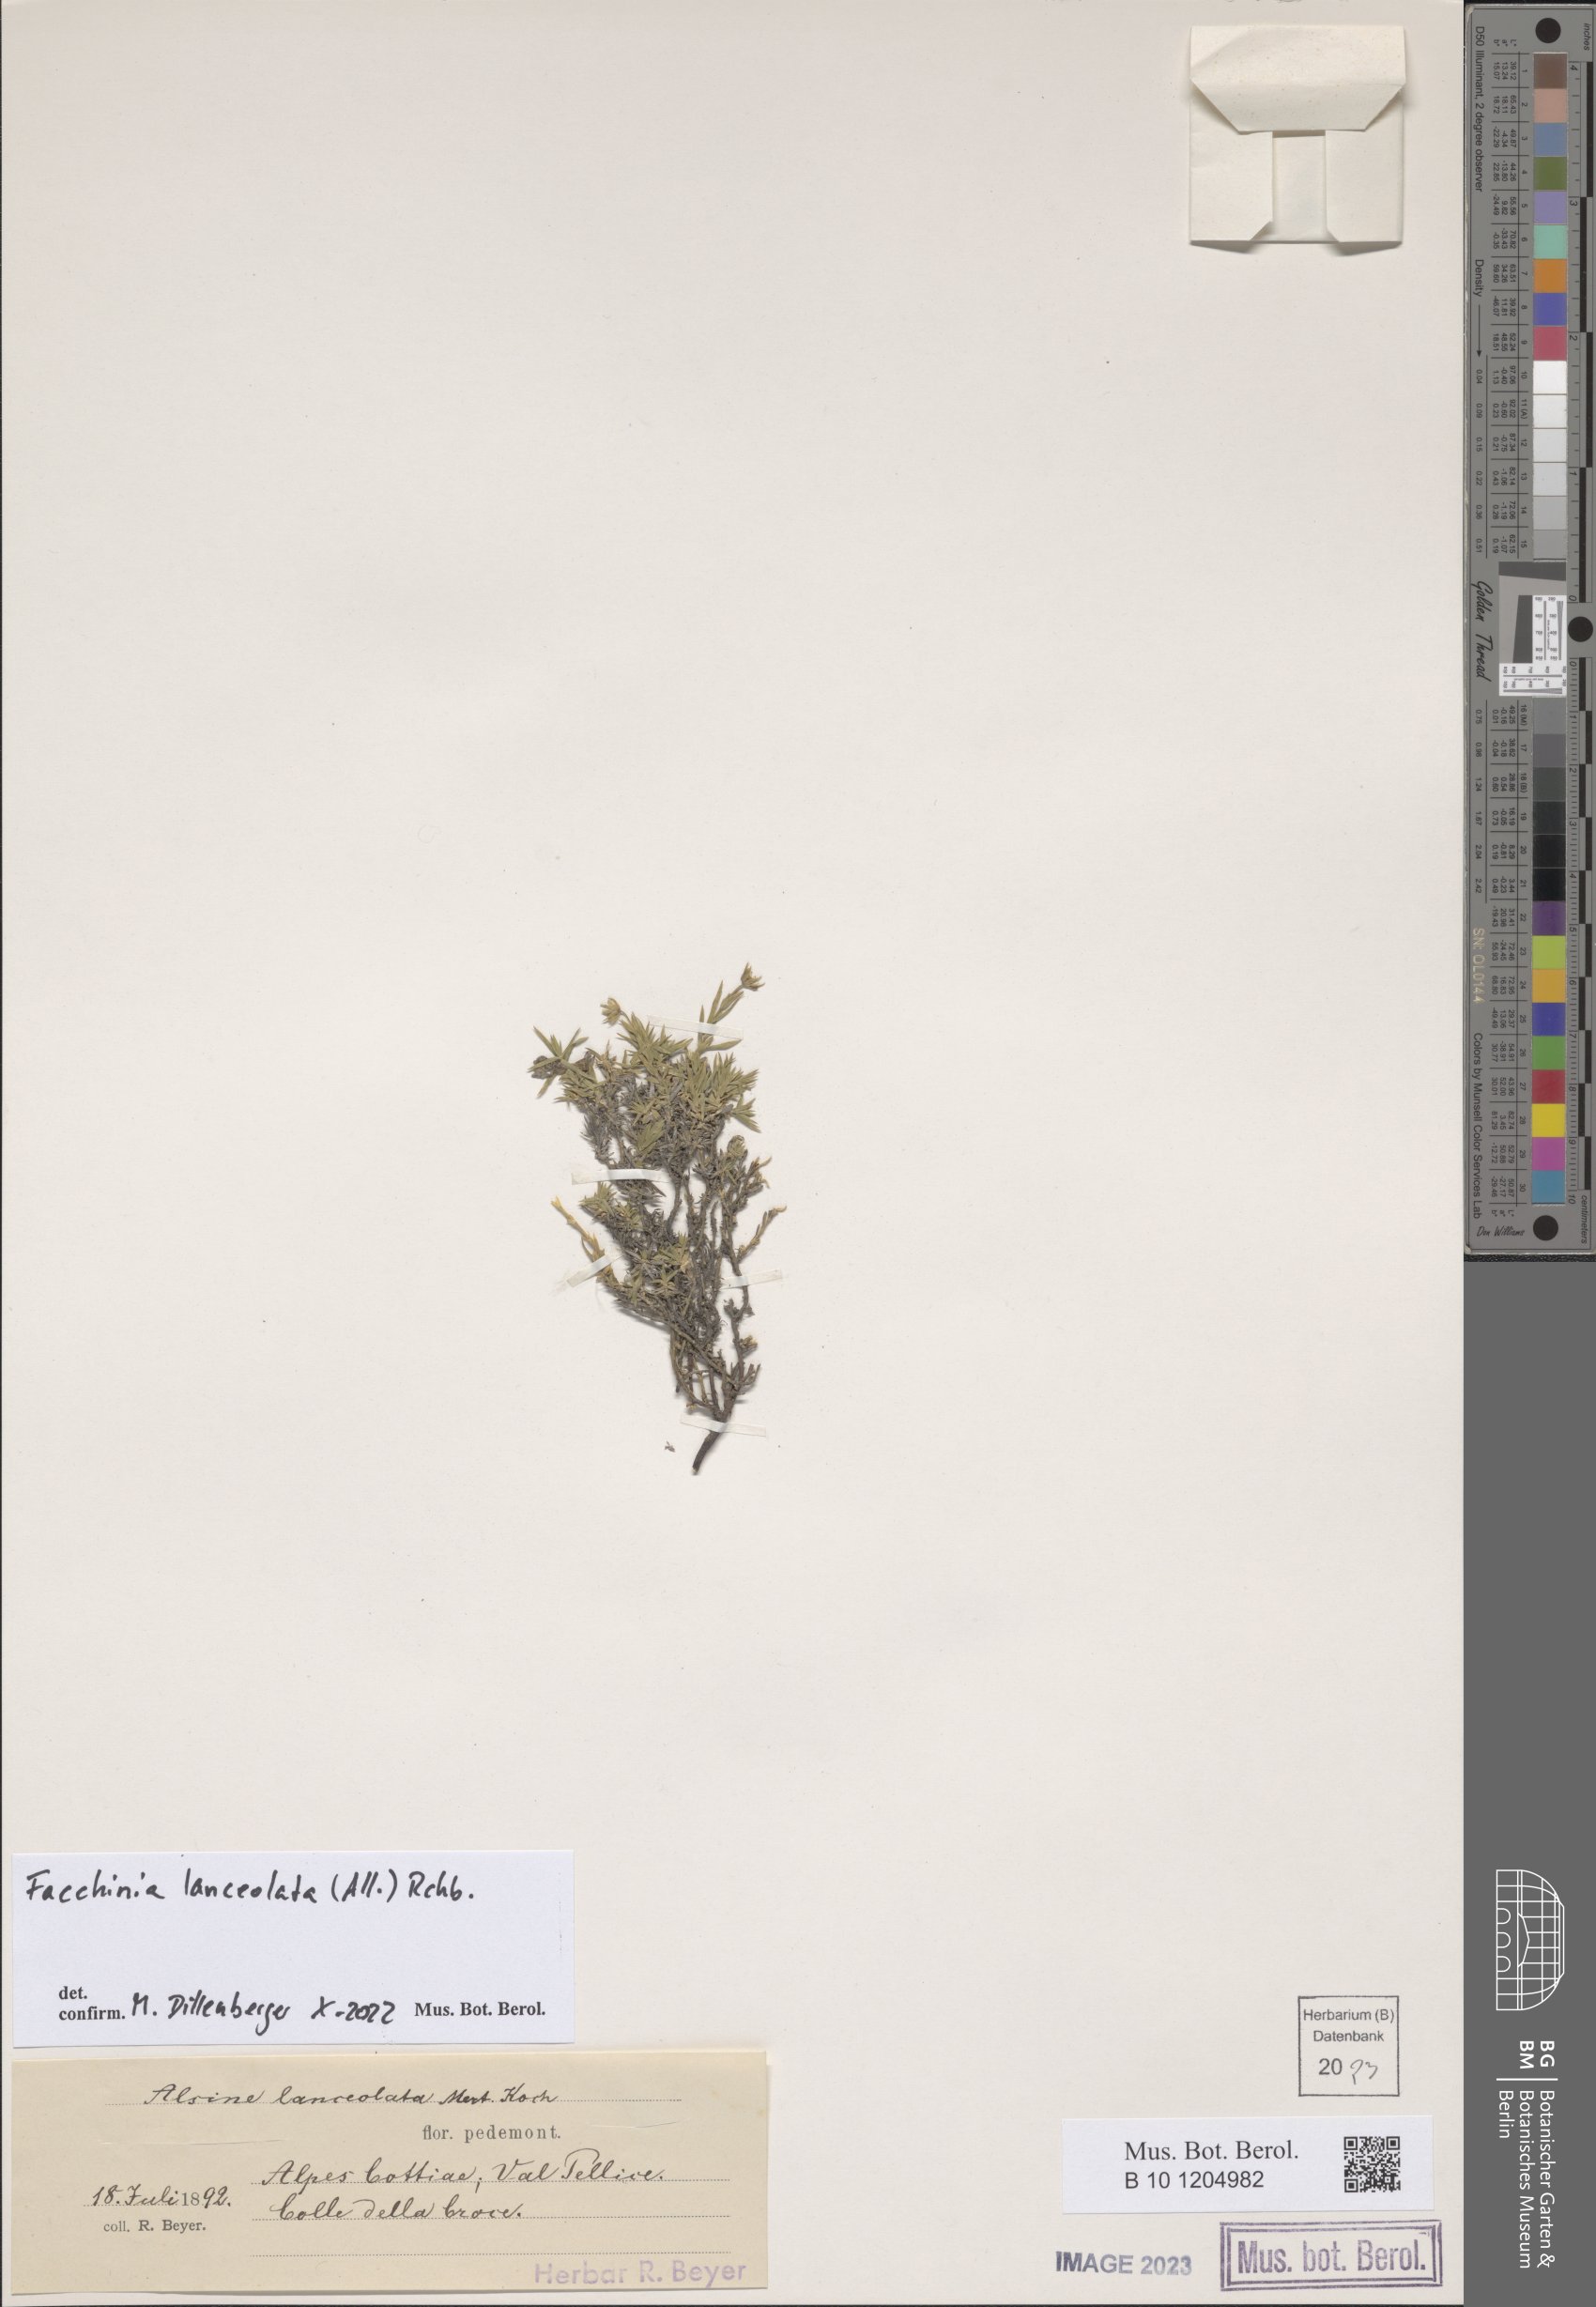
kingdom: Plantae
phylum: Tracheophyta
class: Magnoliopsida
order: Caryophyllales
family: Caryophyllaceae
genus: Facchinia
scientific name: Facchinia lanceolata
